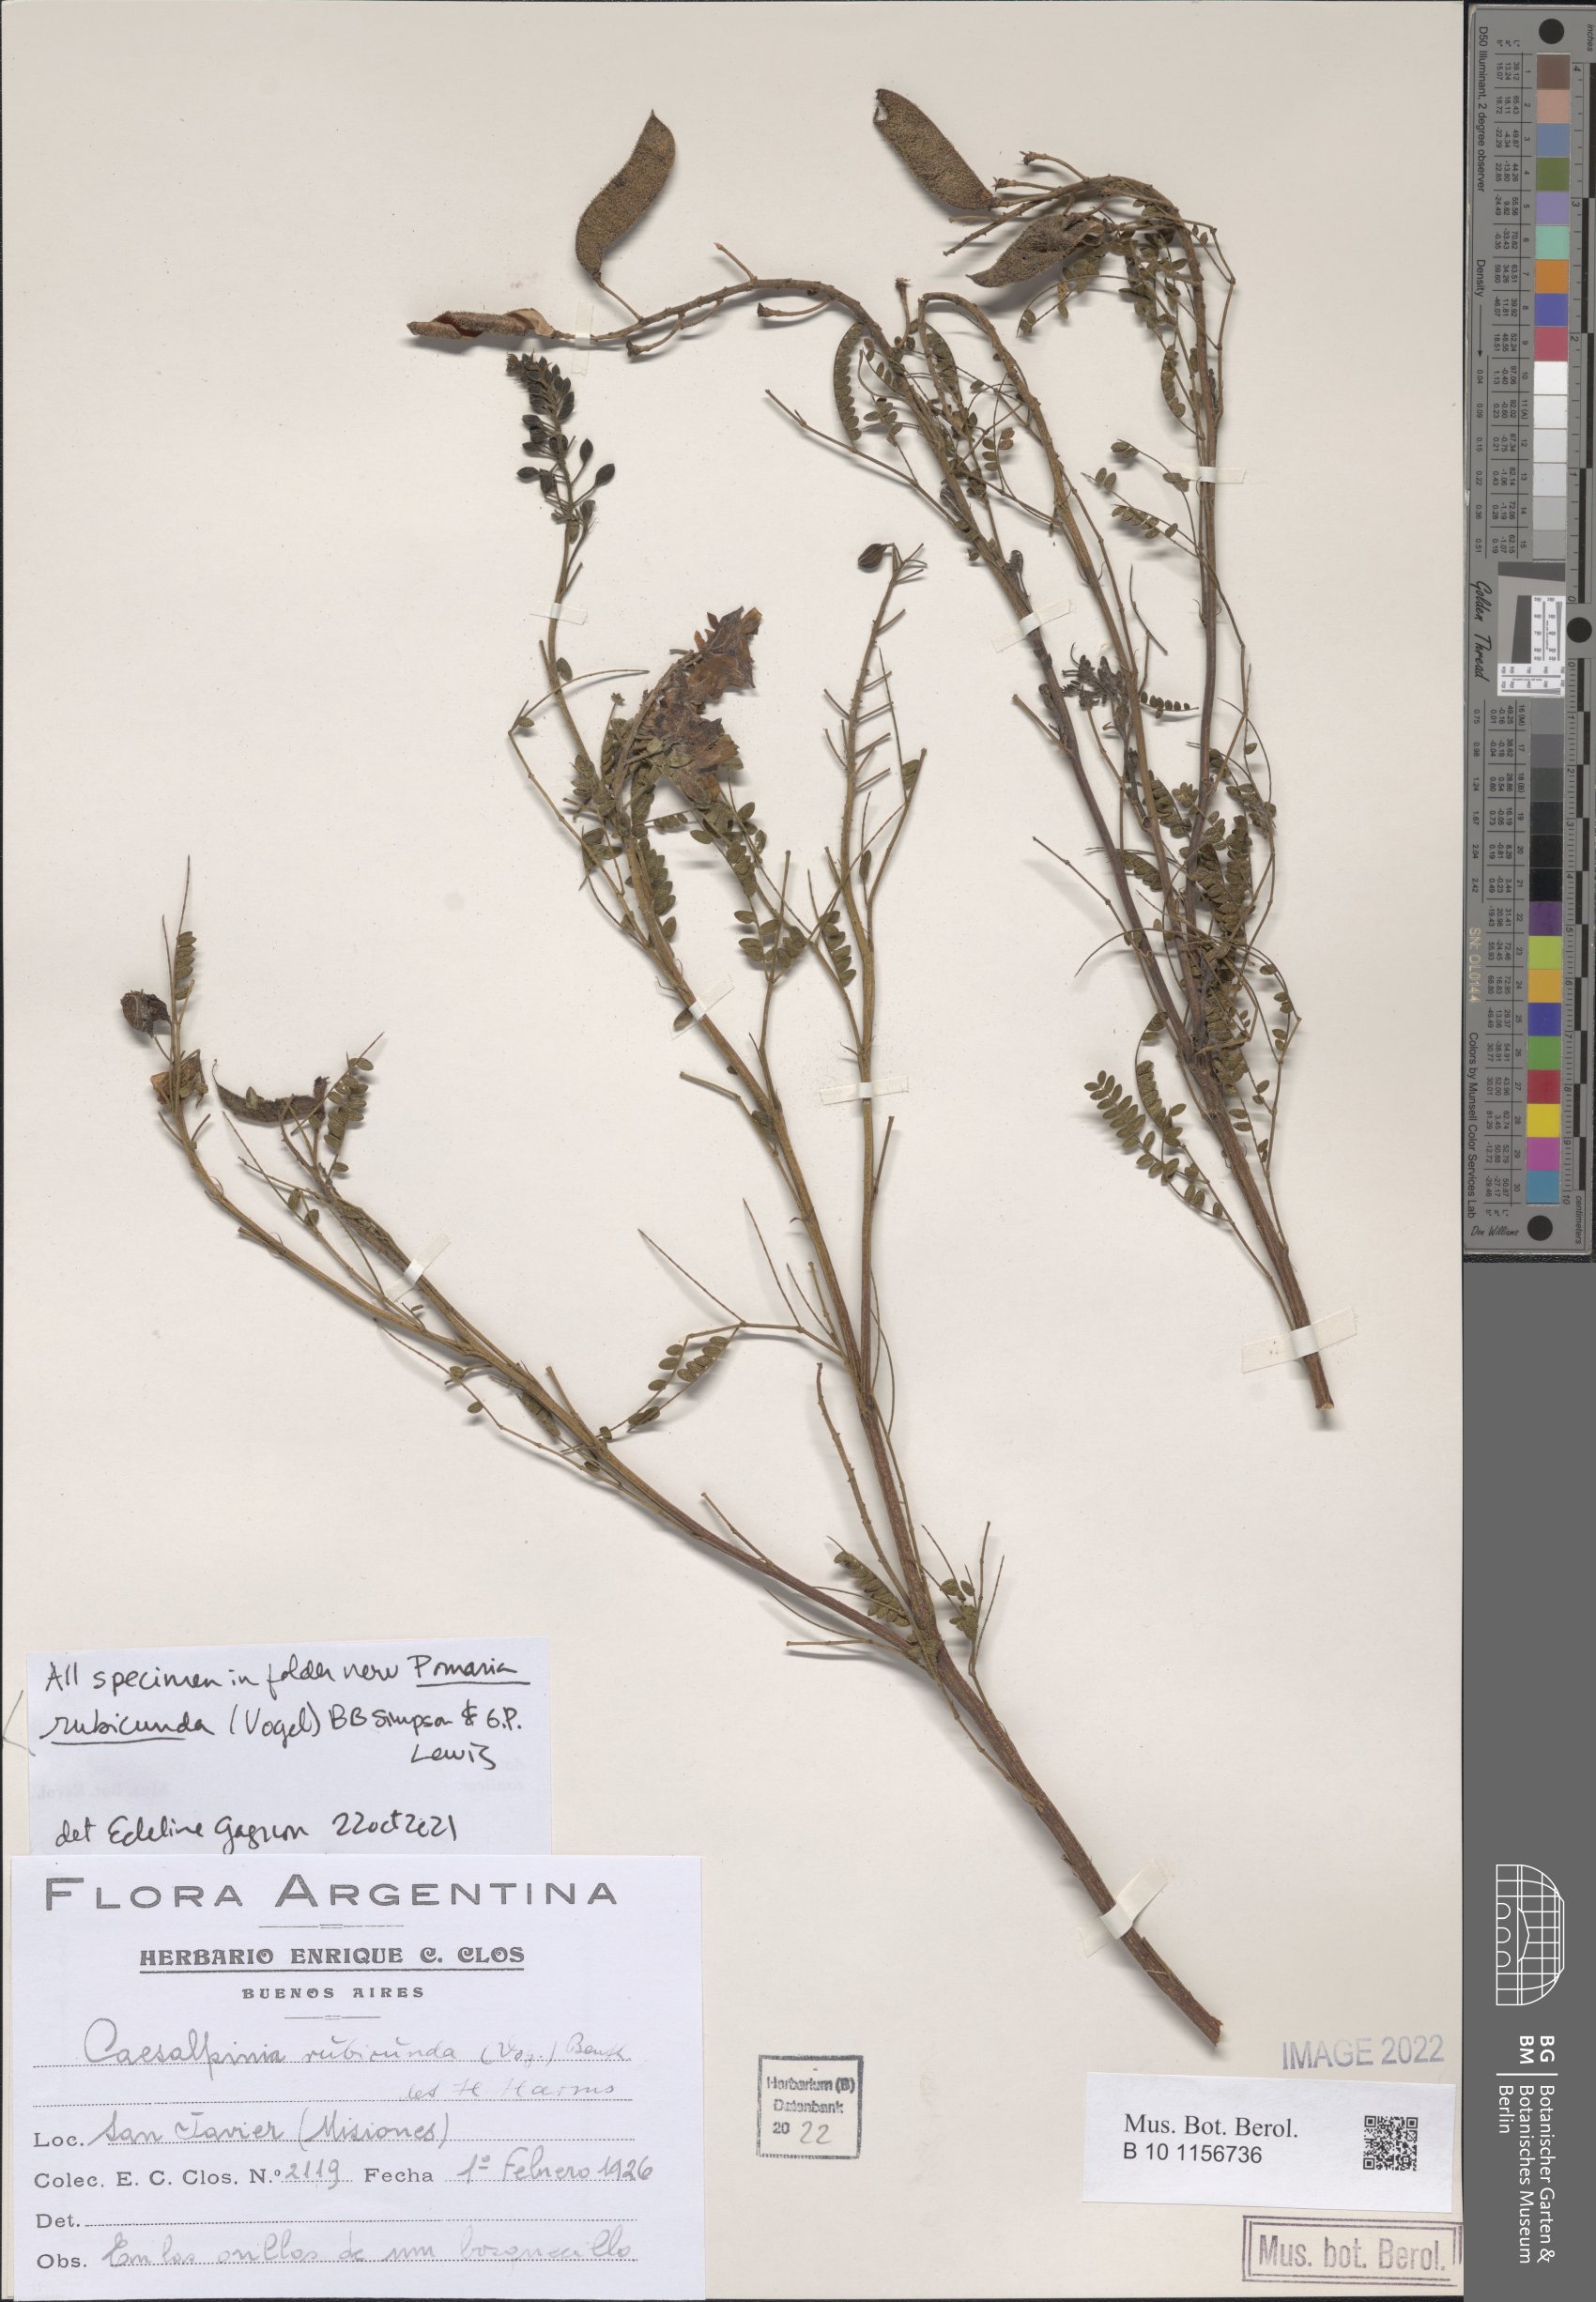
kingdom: Plantae
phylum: Tracheophyta
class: Magnoliopsida
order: Fabales
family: Fabaceae
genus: Pomaria
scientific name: Pomaria rubicunda
